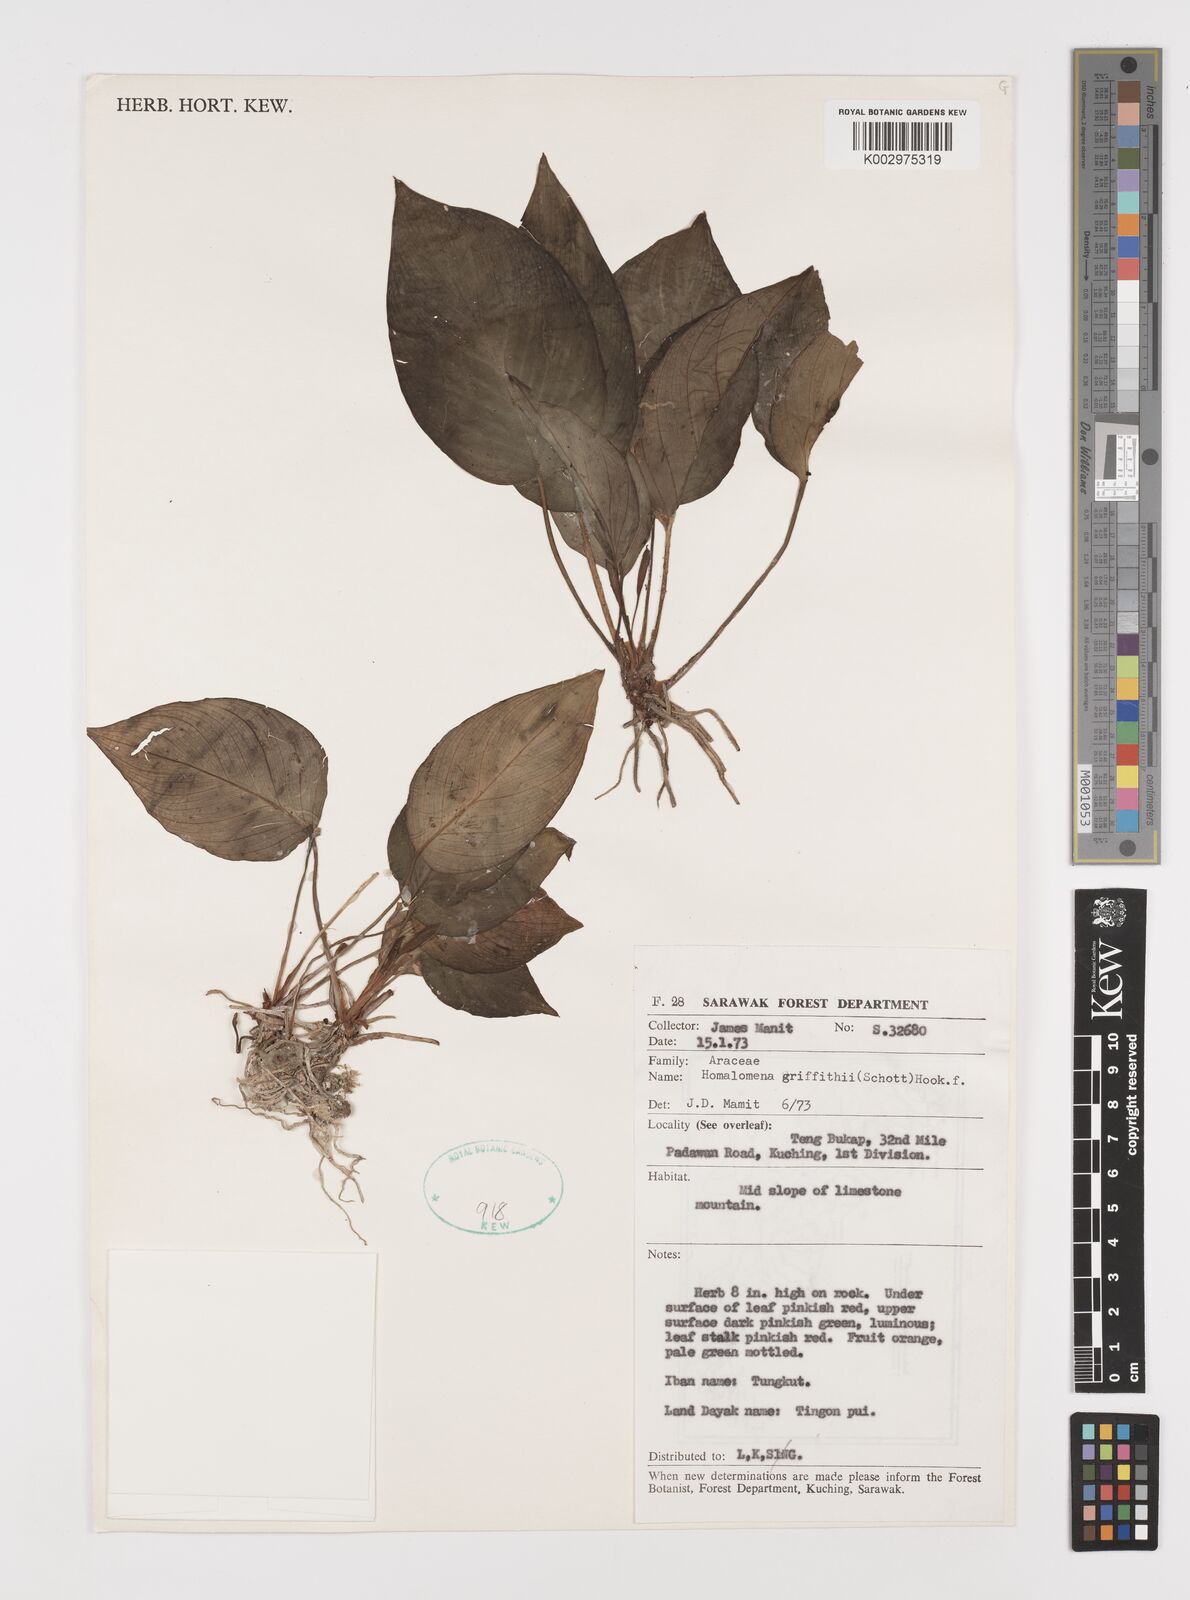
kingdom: Plantae
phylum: Tracheophyta
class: Liliopsida
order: Alismatales
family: Araceae
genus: Homalomena
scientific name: Homalomena griffithii
